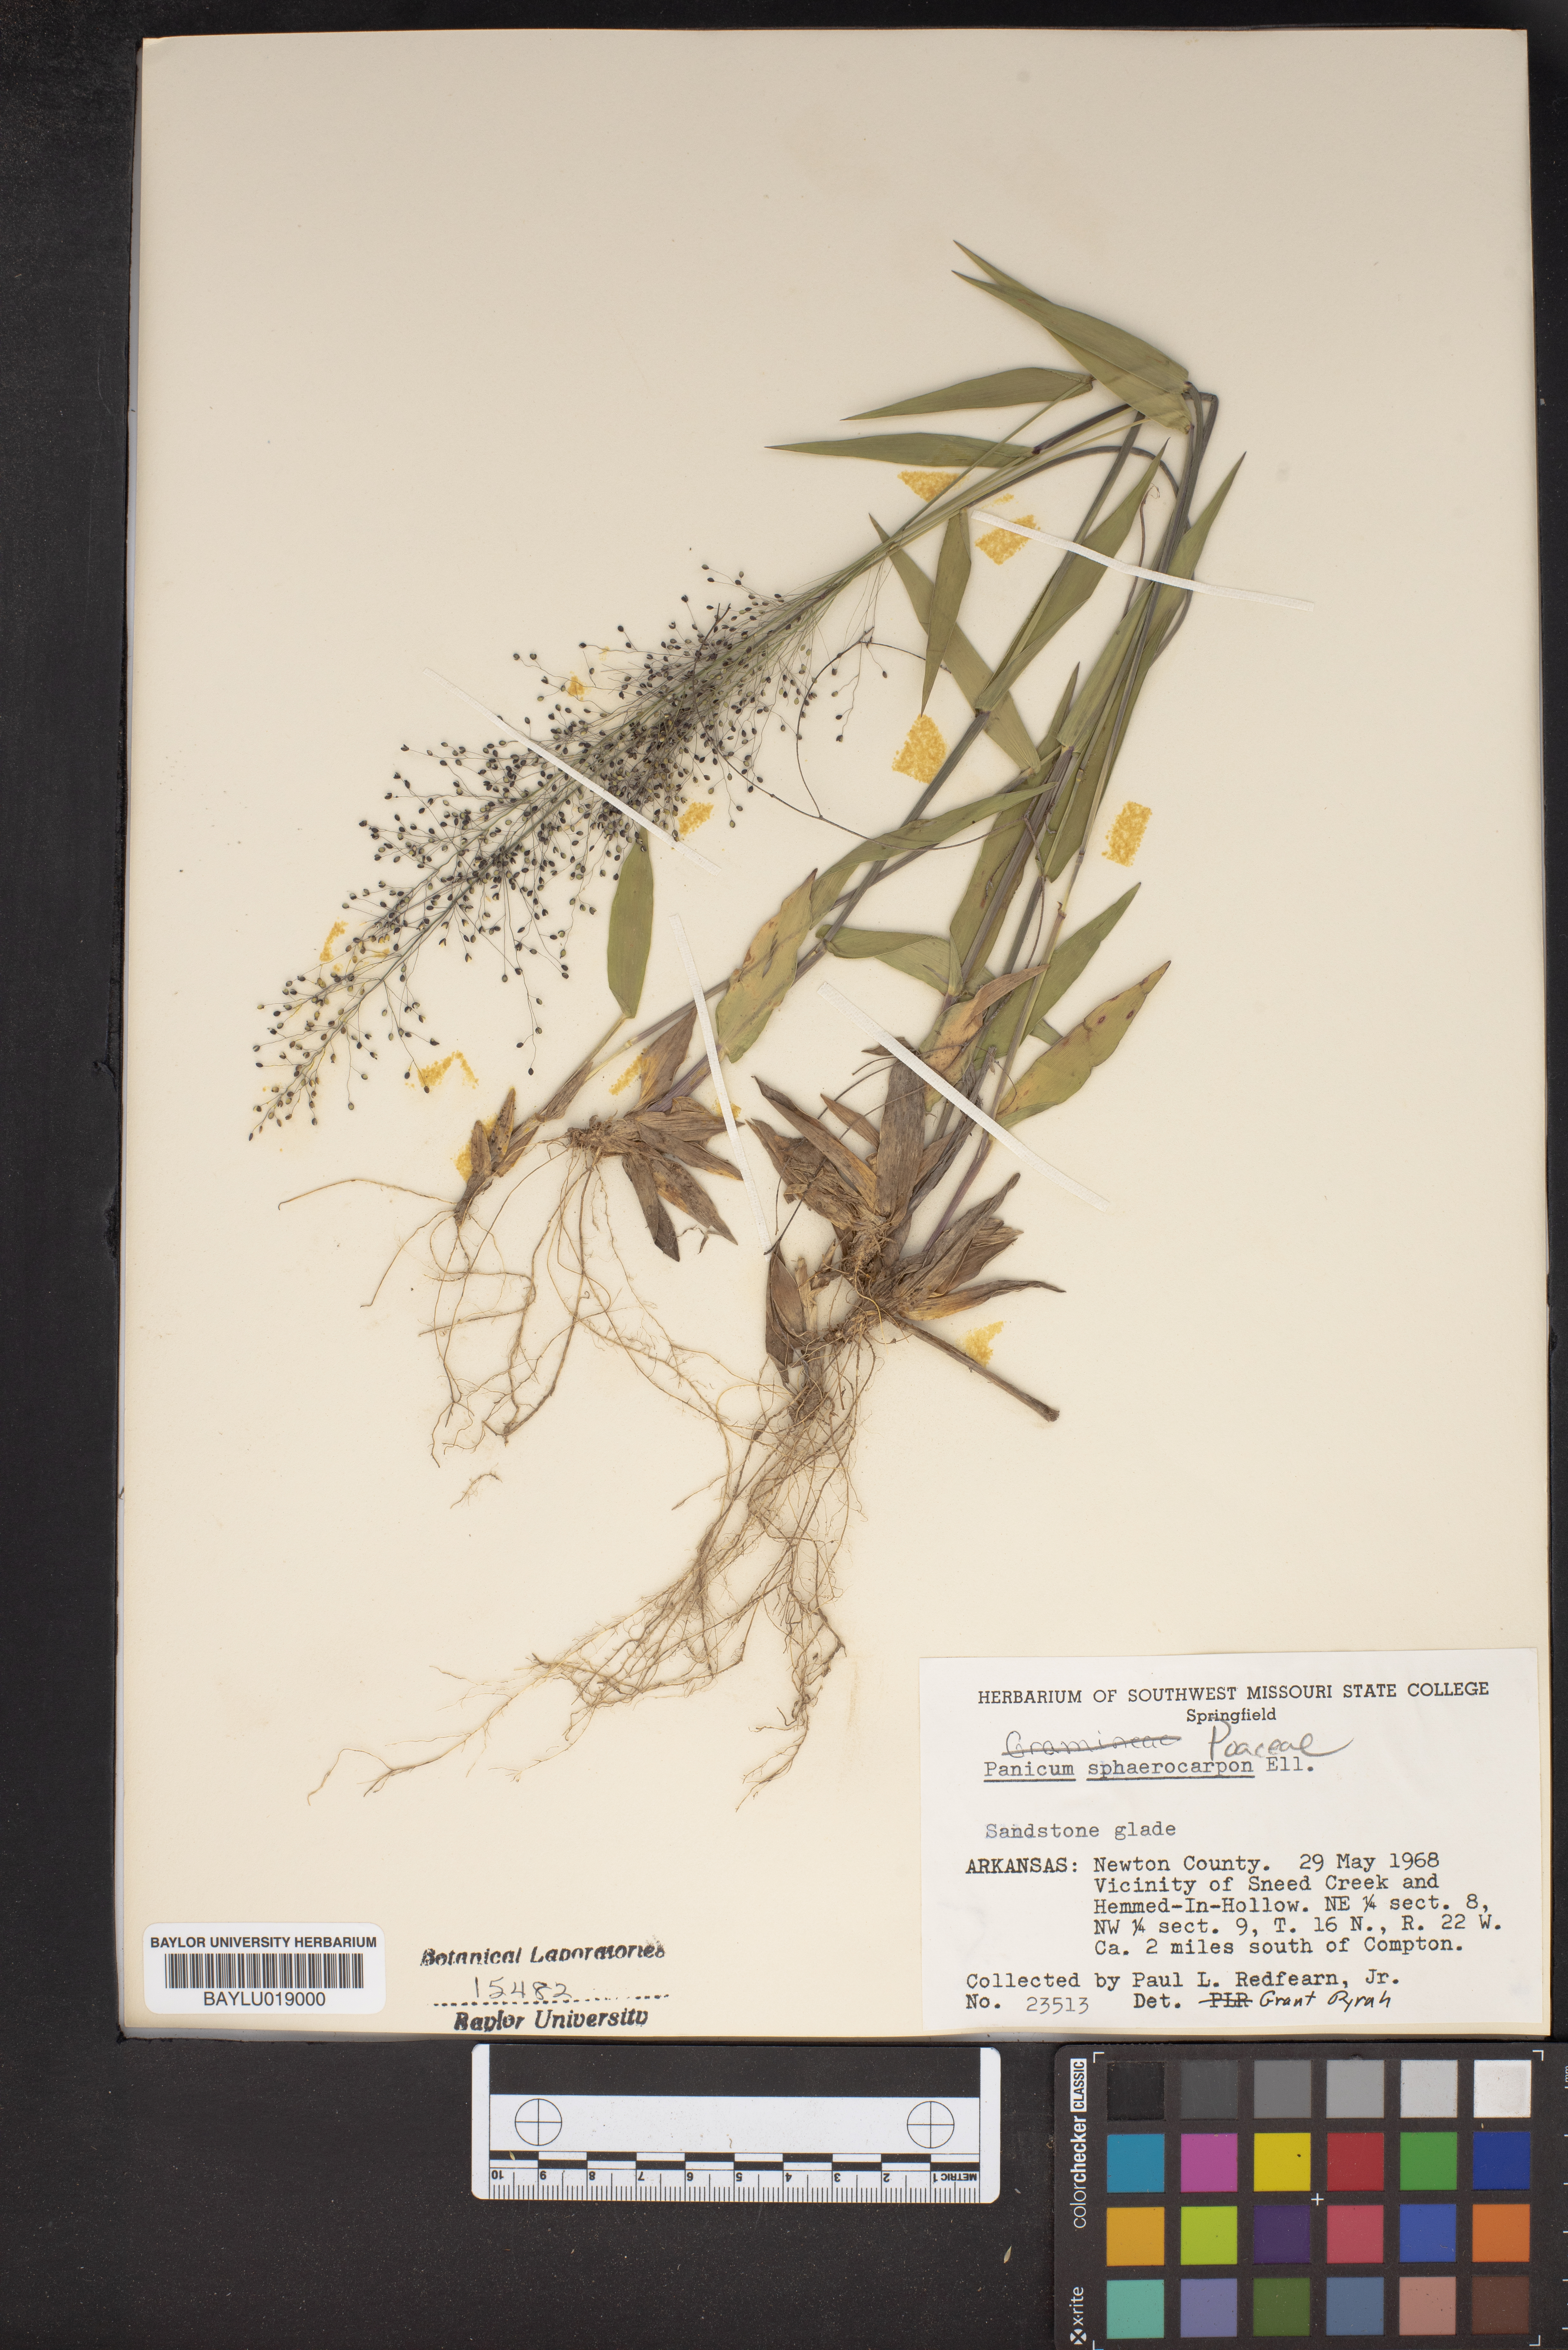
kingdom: Plantae
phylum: Tracheophyta
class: Liliopsida
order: Poales
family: Poaceae
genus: Dichanthelium
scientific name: Dichanthelium sphaerocarpon
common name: Round-fruited panicgrass
